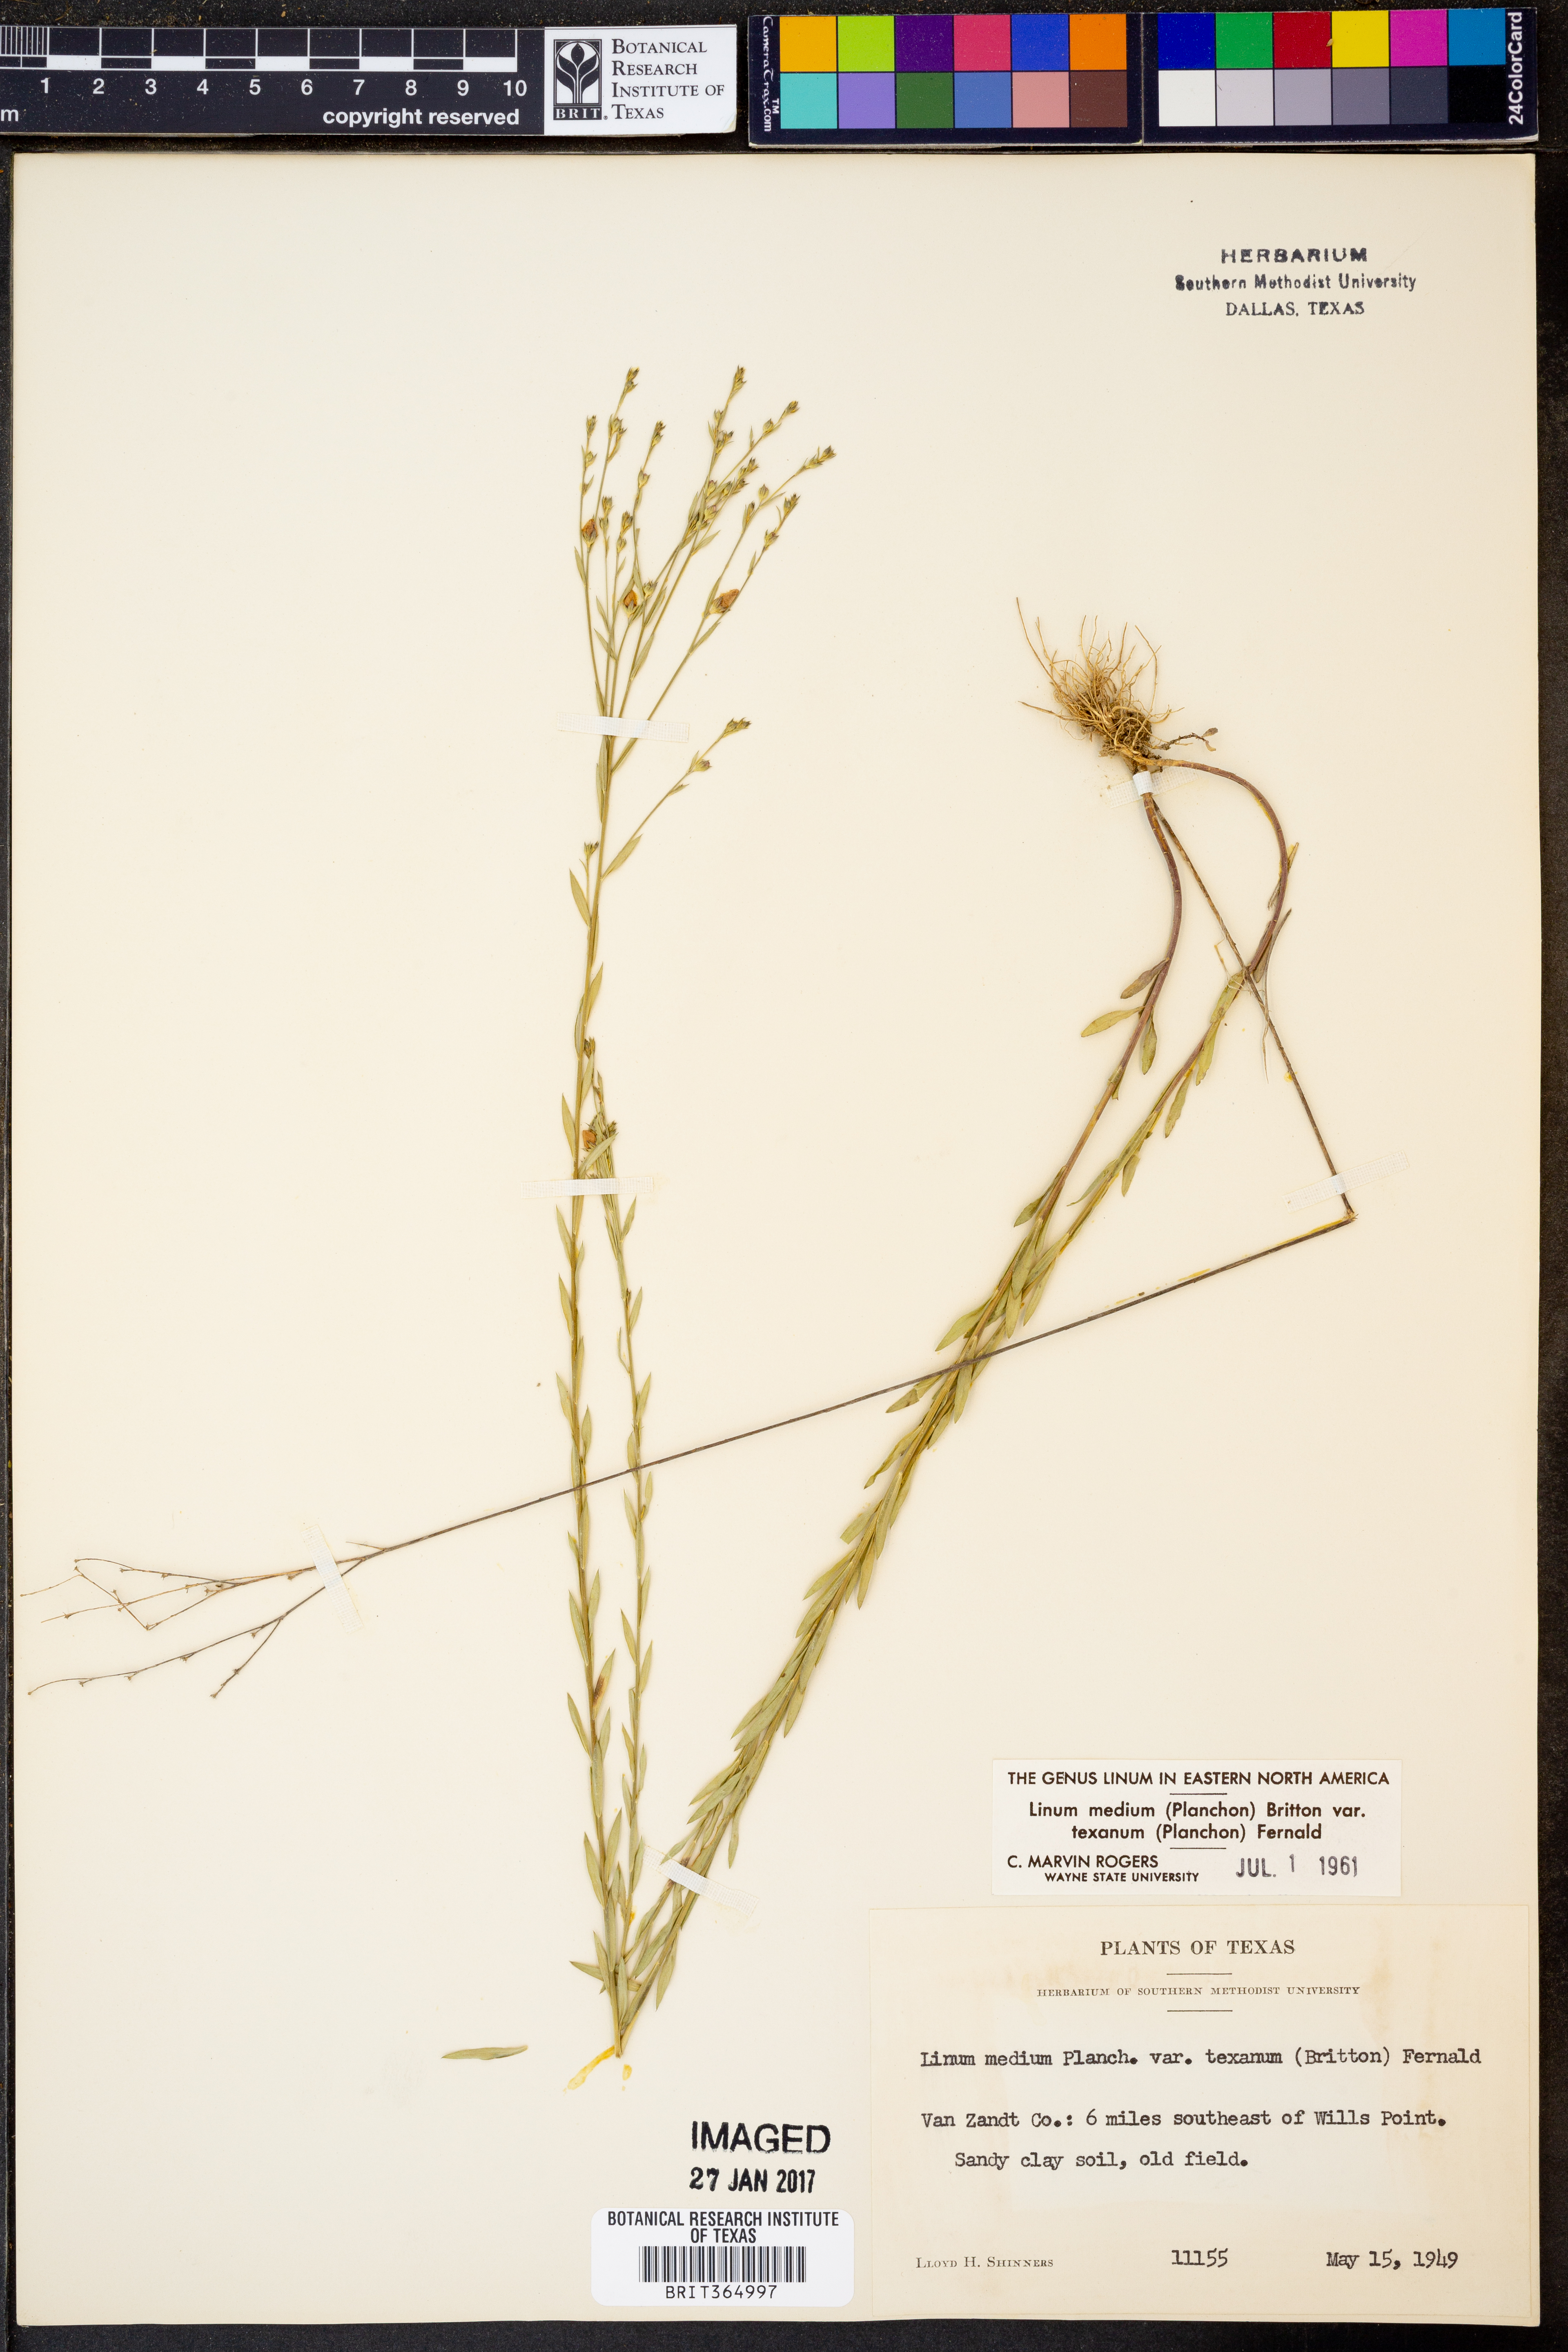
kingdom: Plantae
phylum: Tracheophyta
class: Magnoliopsida
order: Malpighiales
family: Linaceae
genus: Linum
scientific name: Linum medium
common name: Stiff yellow flax
